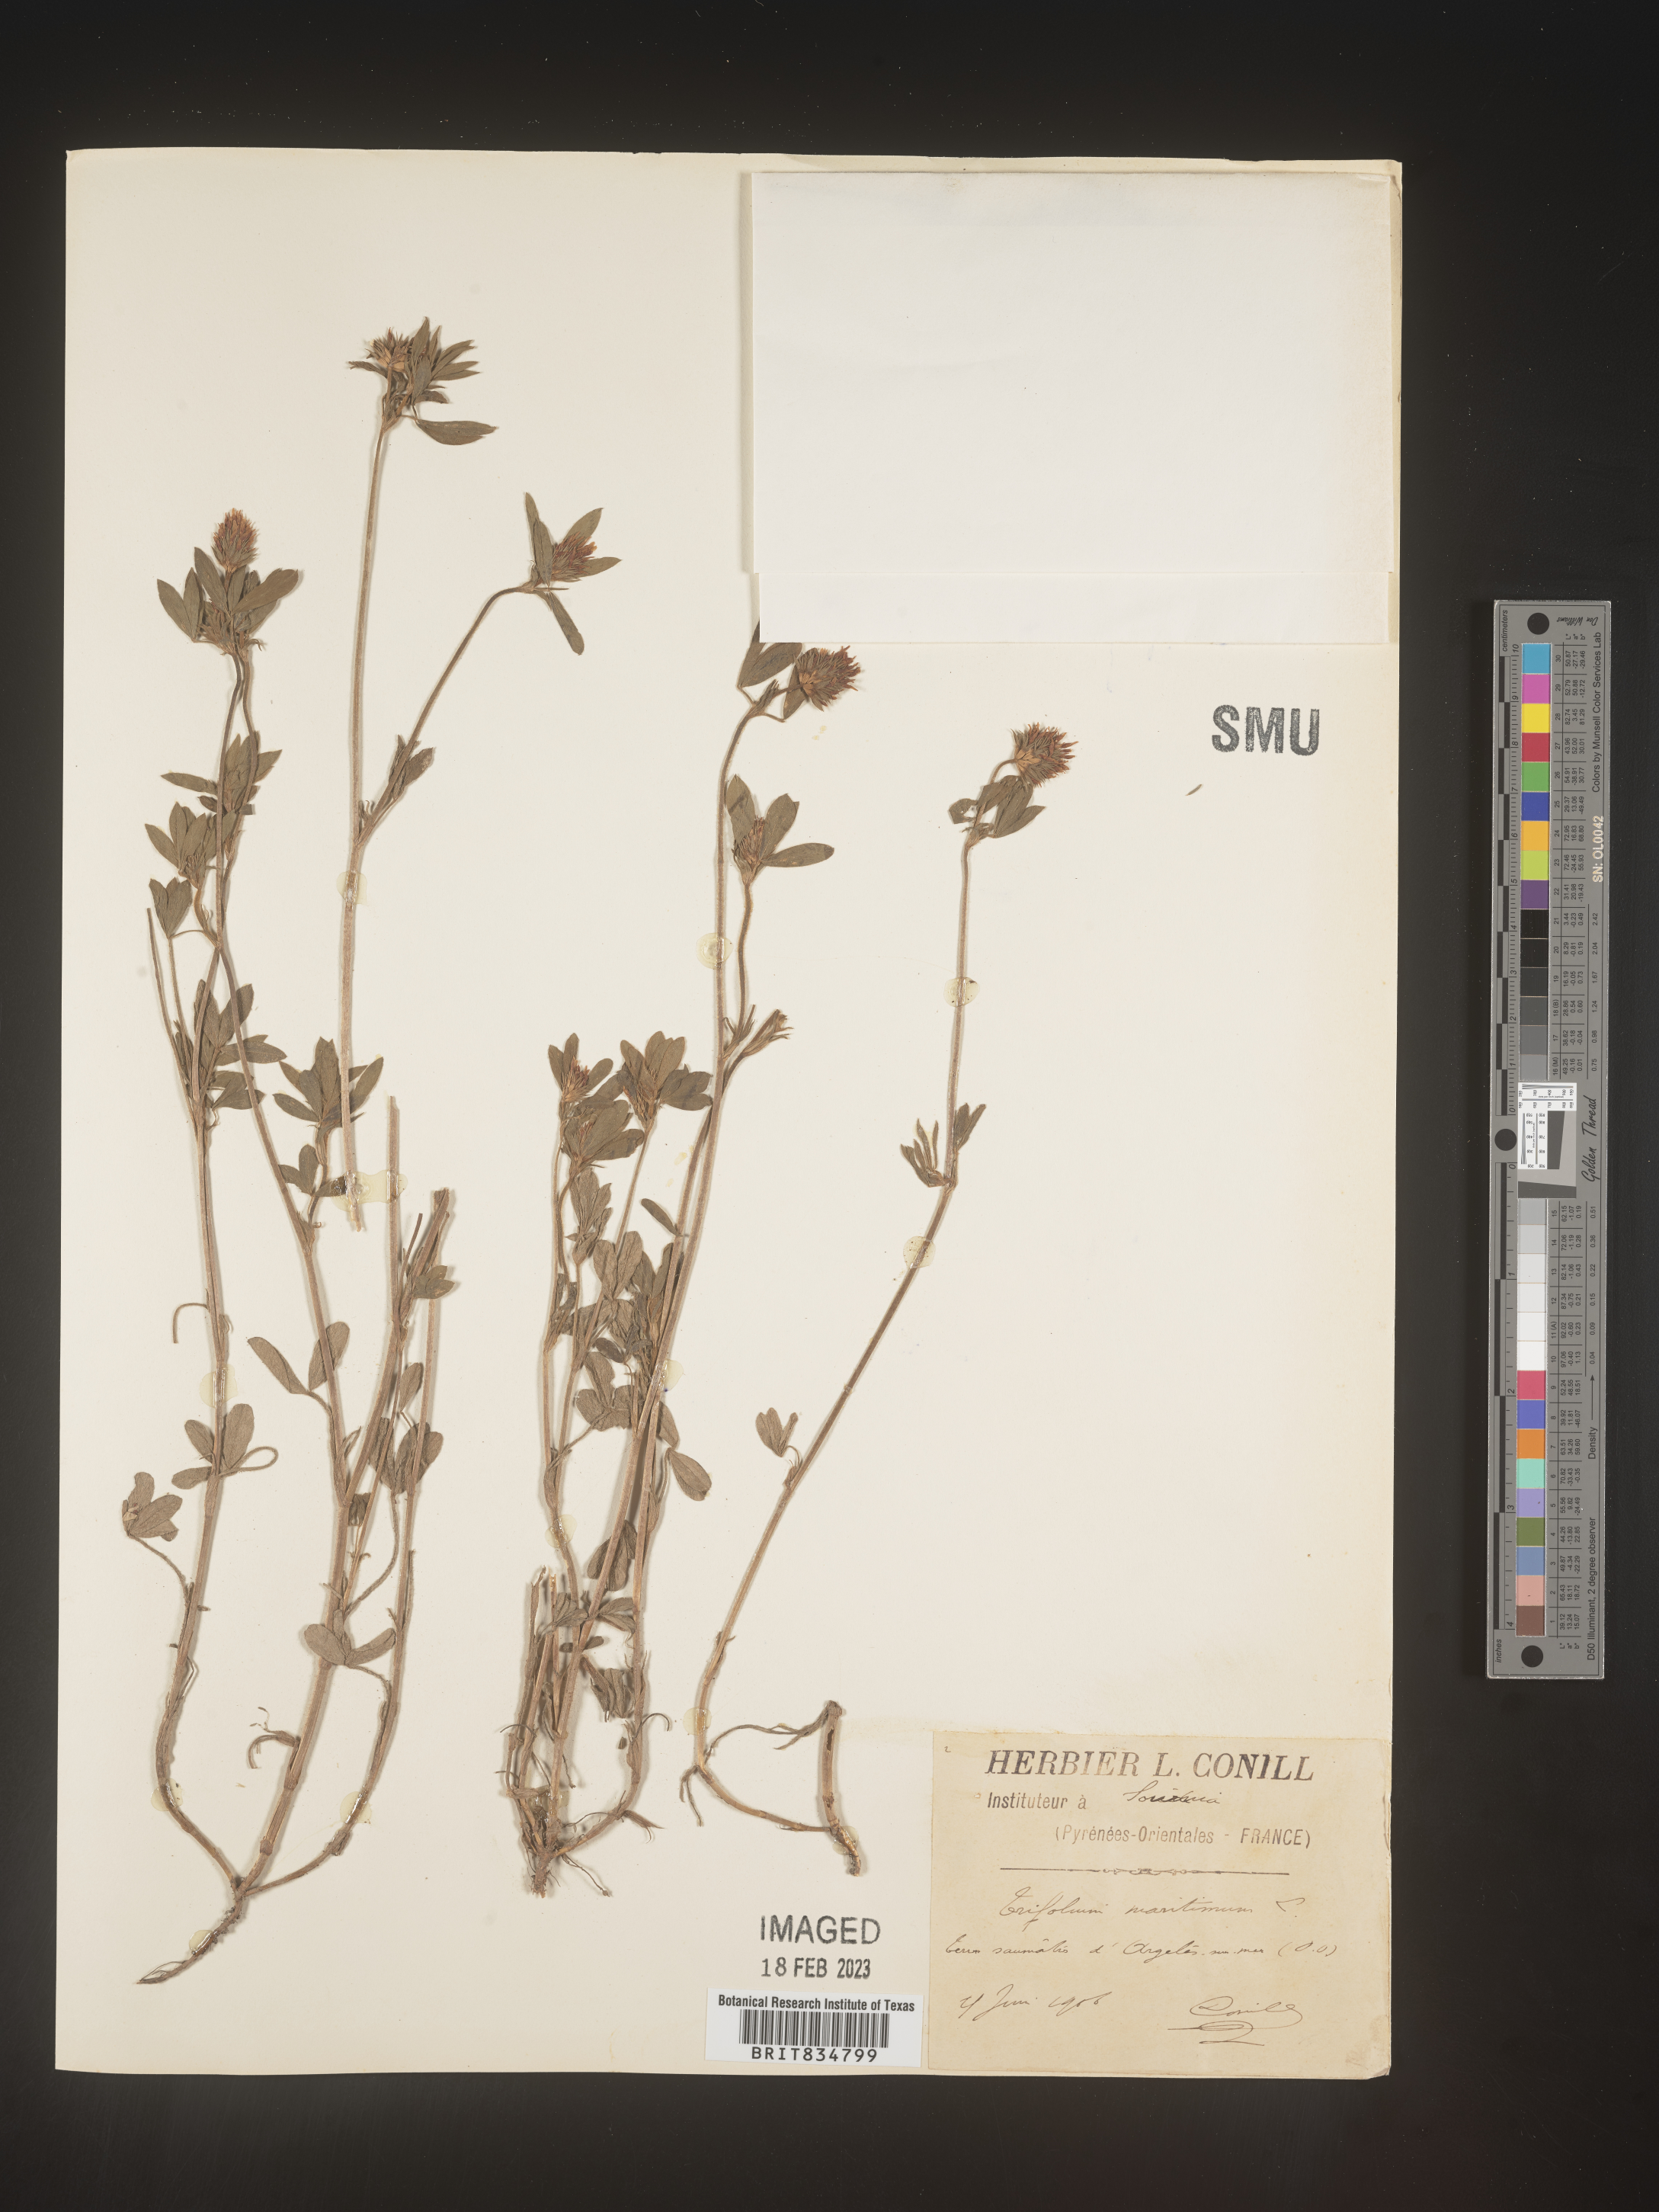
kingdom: Plantae
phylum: Tracheophyta
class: Magnoliopsida
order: Fabales
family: Fabaceae
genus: Trifolium
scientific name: Trifolium
